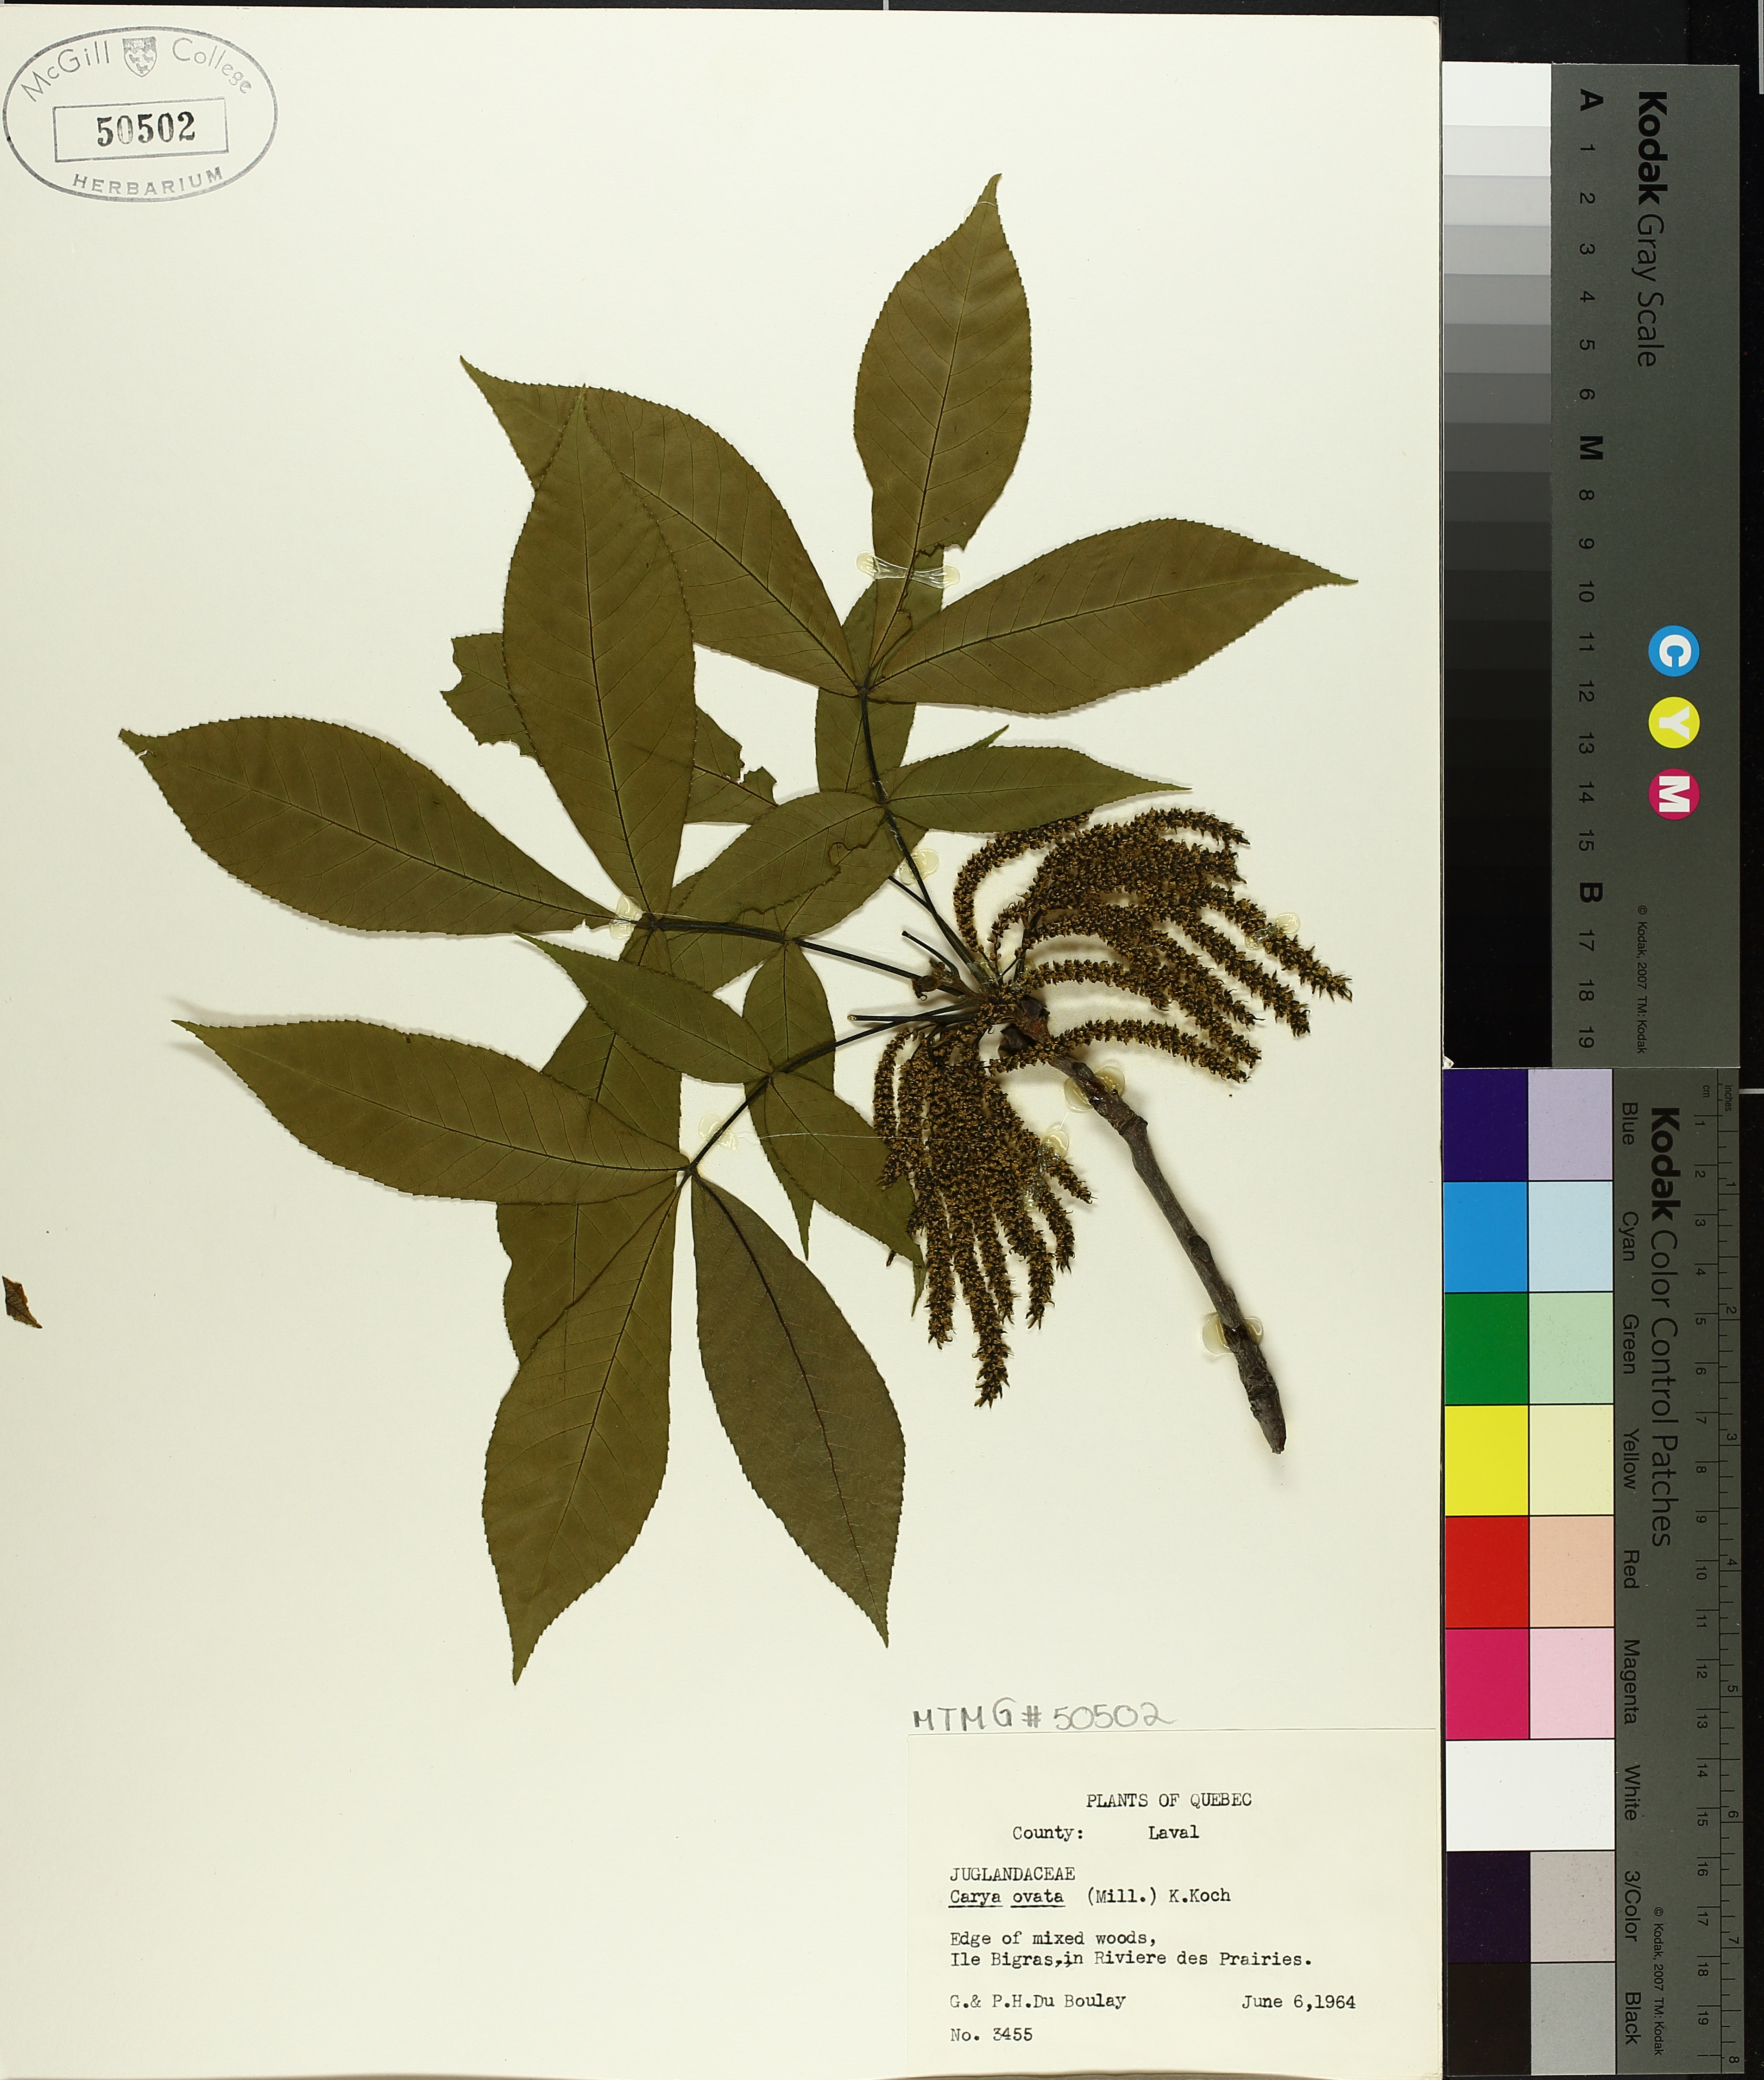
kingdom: Plantae
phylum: Tracheophyta
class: Magnoliopsida
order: Fagales
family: Juglandaceae
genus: Carya
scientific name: Carya ovata
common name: Shagbark hickory
